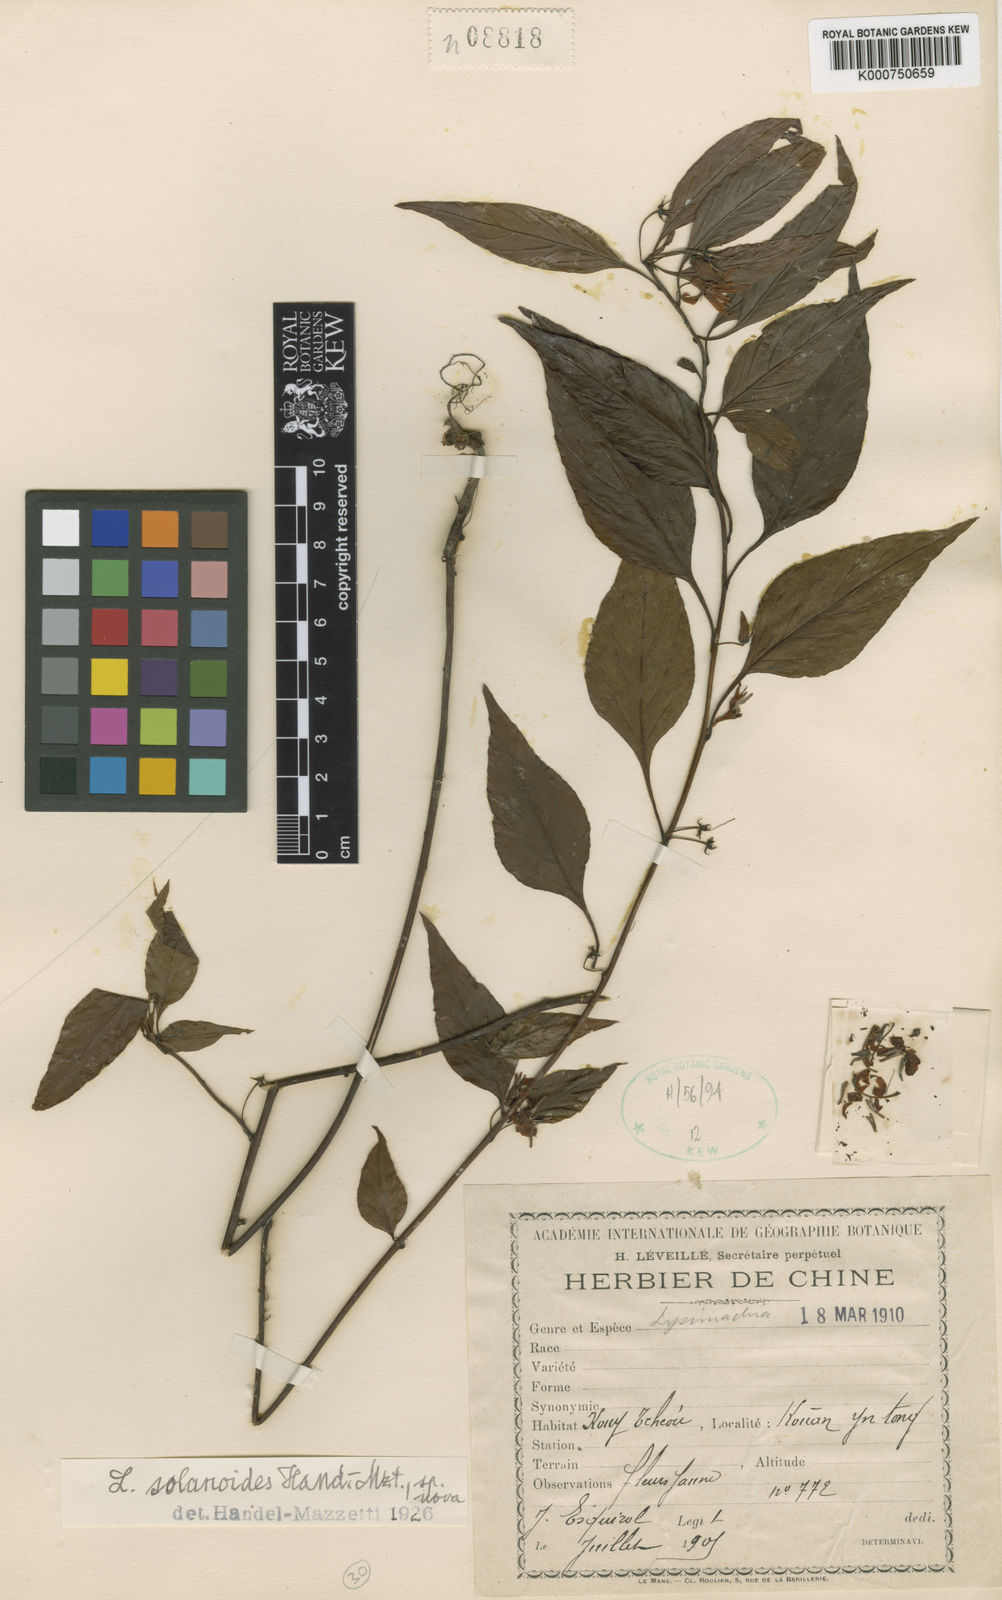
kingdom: Plantae
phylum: Tracheophyta
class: Magnoliopsida
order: Ericales
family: Primulaceae
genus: Lysimachia
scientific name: Lysimachia navillei
